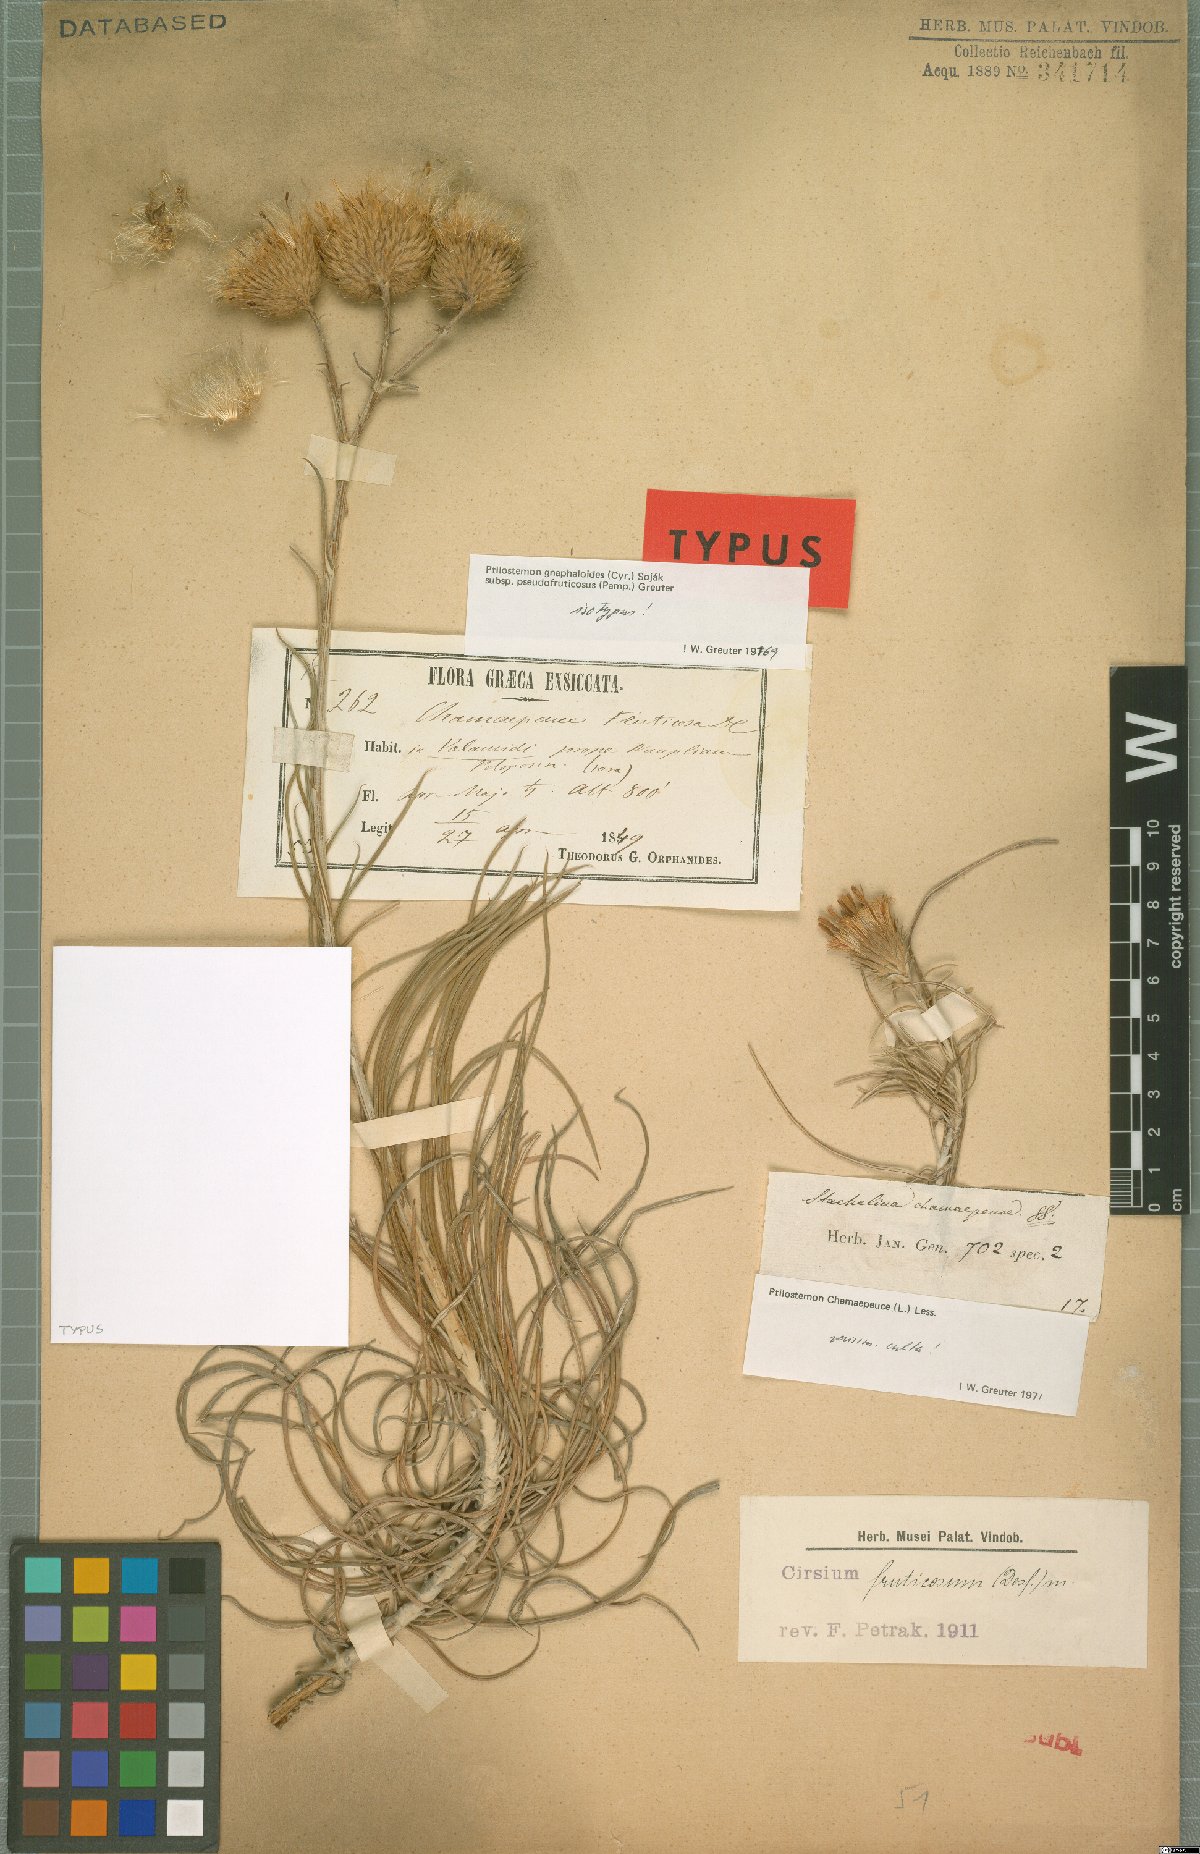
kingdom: Plantae
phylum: Tracheophyta
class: Magnoliopsida
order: Asterales
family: Asteraceae
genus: Ptilostemon
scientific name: Ptilostemon gnaphaloides
